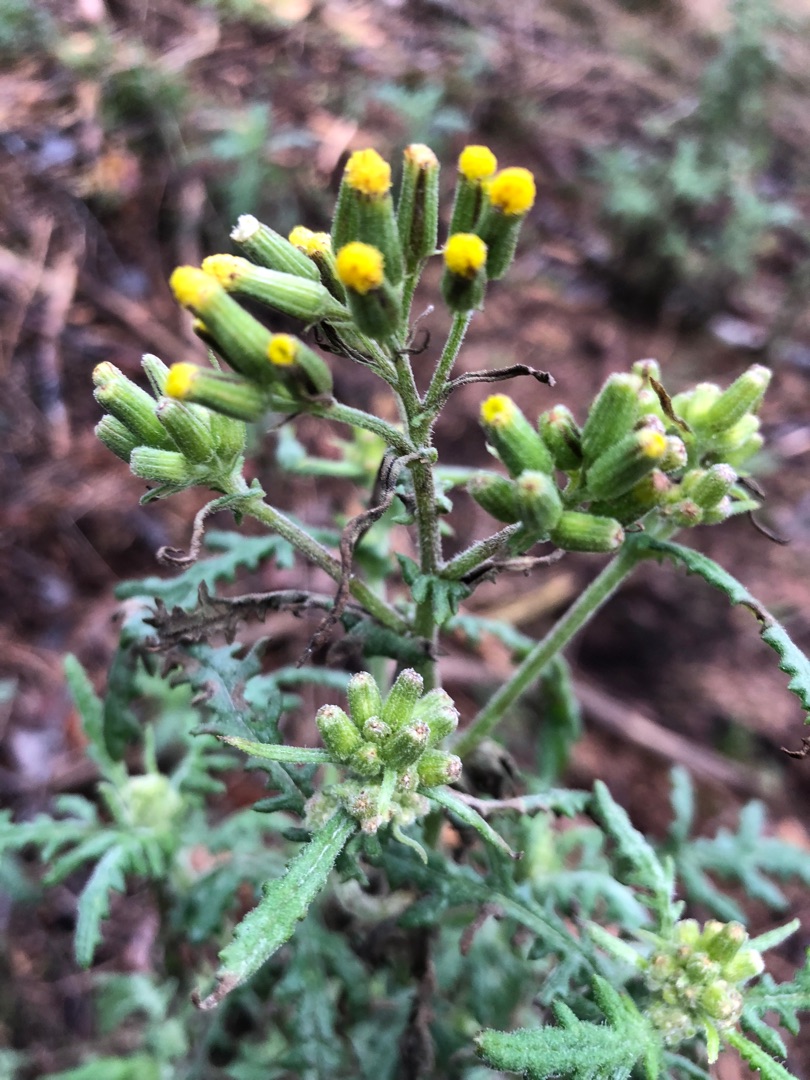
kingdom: Plantae
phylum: Tracheophyta
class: Magnoliopsida
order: Asterales
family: Asteraceae
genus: Senecio
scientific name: Senecio sylvaticus
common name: Skov-brandbæger
